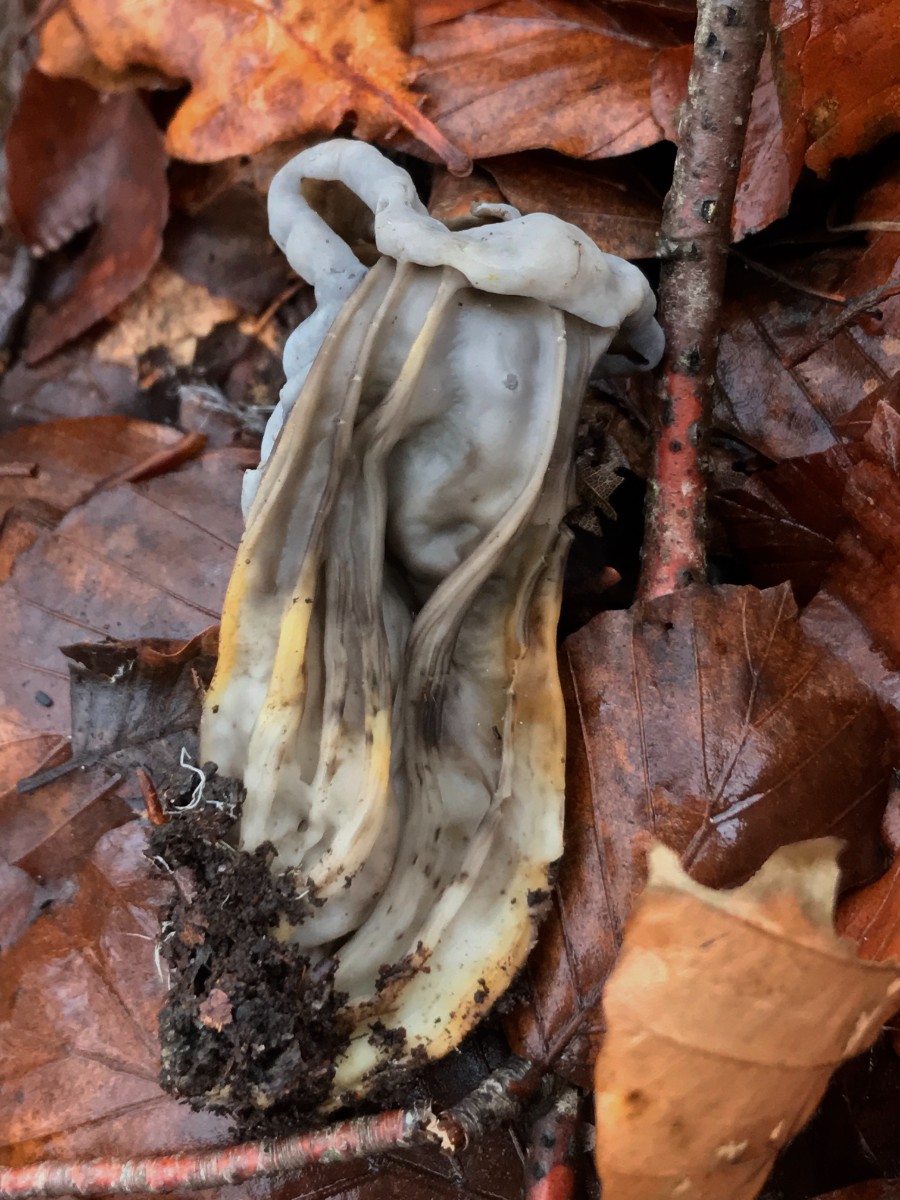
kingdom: Fungi
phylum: Ascomycota
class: Pezizomycetes
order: Pezizales
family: Helvellaceae
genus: Helvella
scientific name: Helvella lacunosa
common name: grubet foldhat
